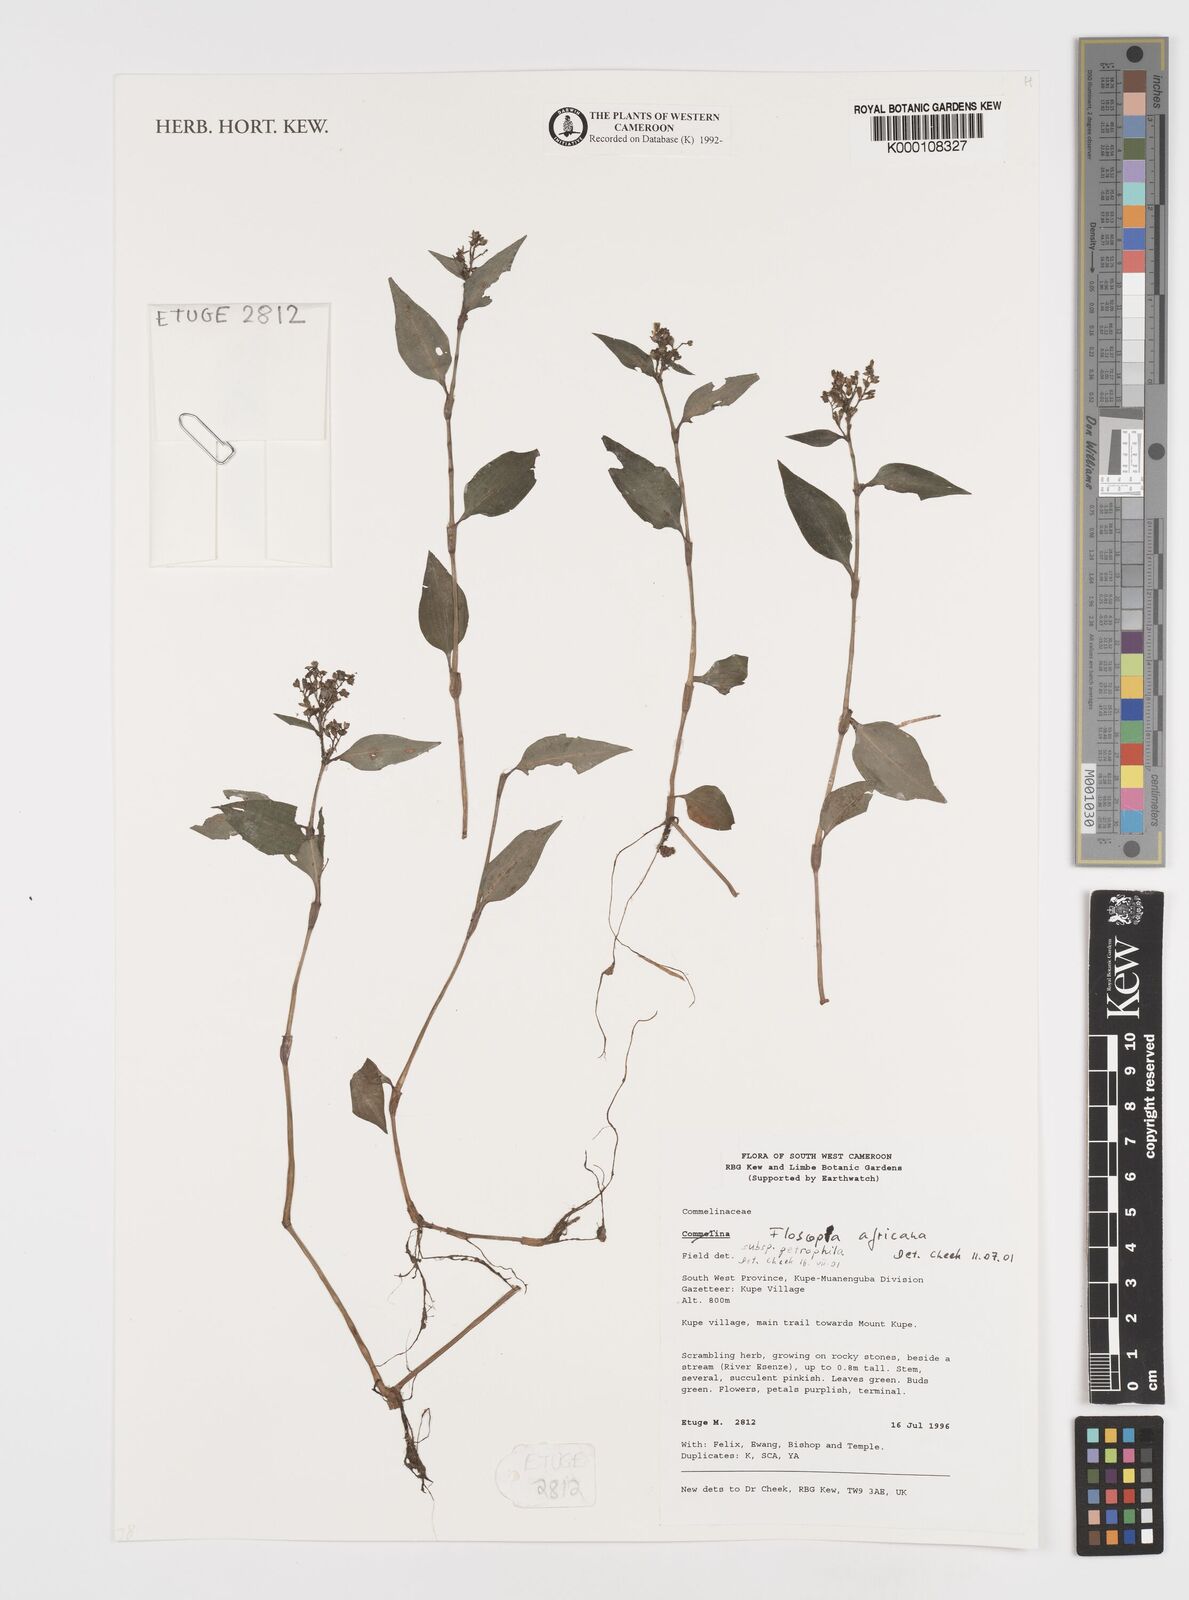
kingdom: Plantae
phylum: Tracheophyta
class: Liliopsida
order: Commelinales
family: Commelinaceae
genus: Floscopa
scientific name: Floscopa africana
